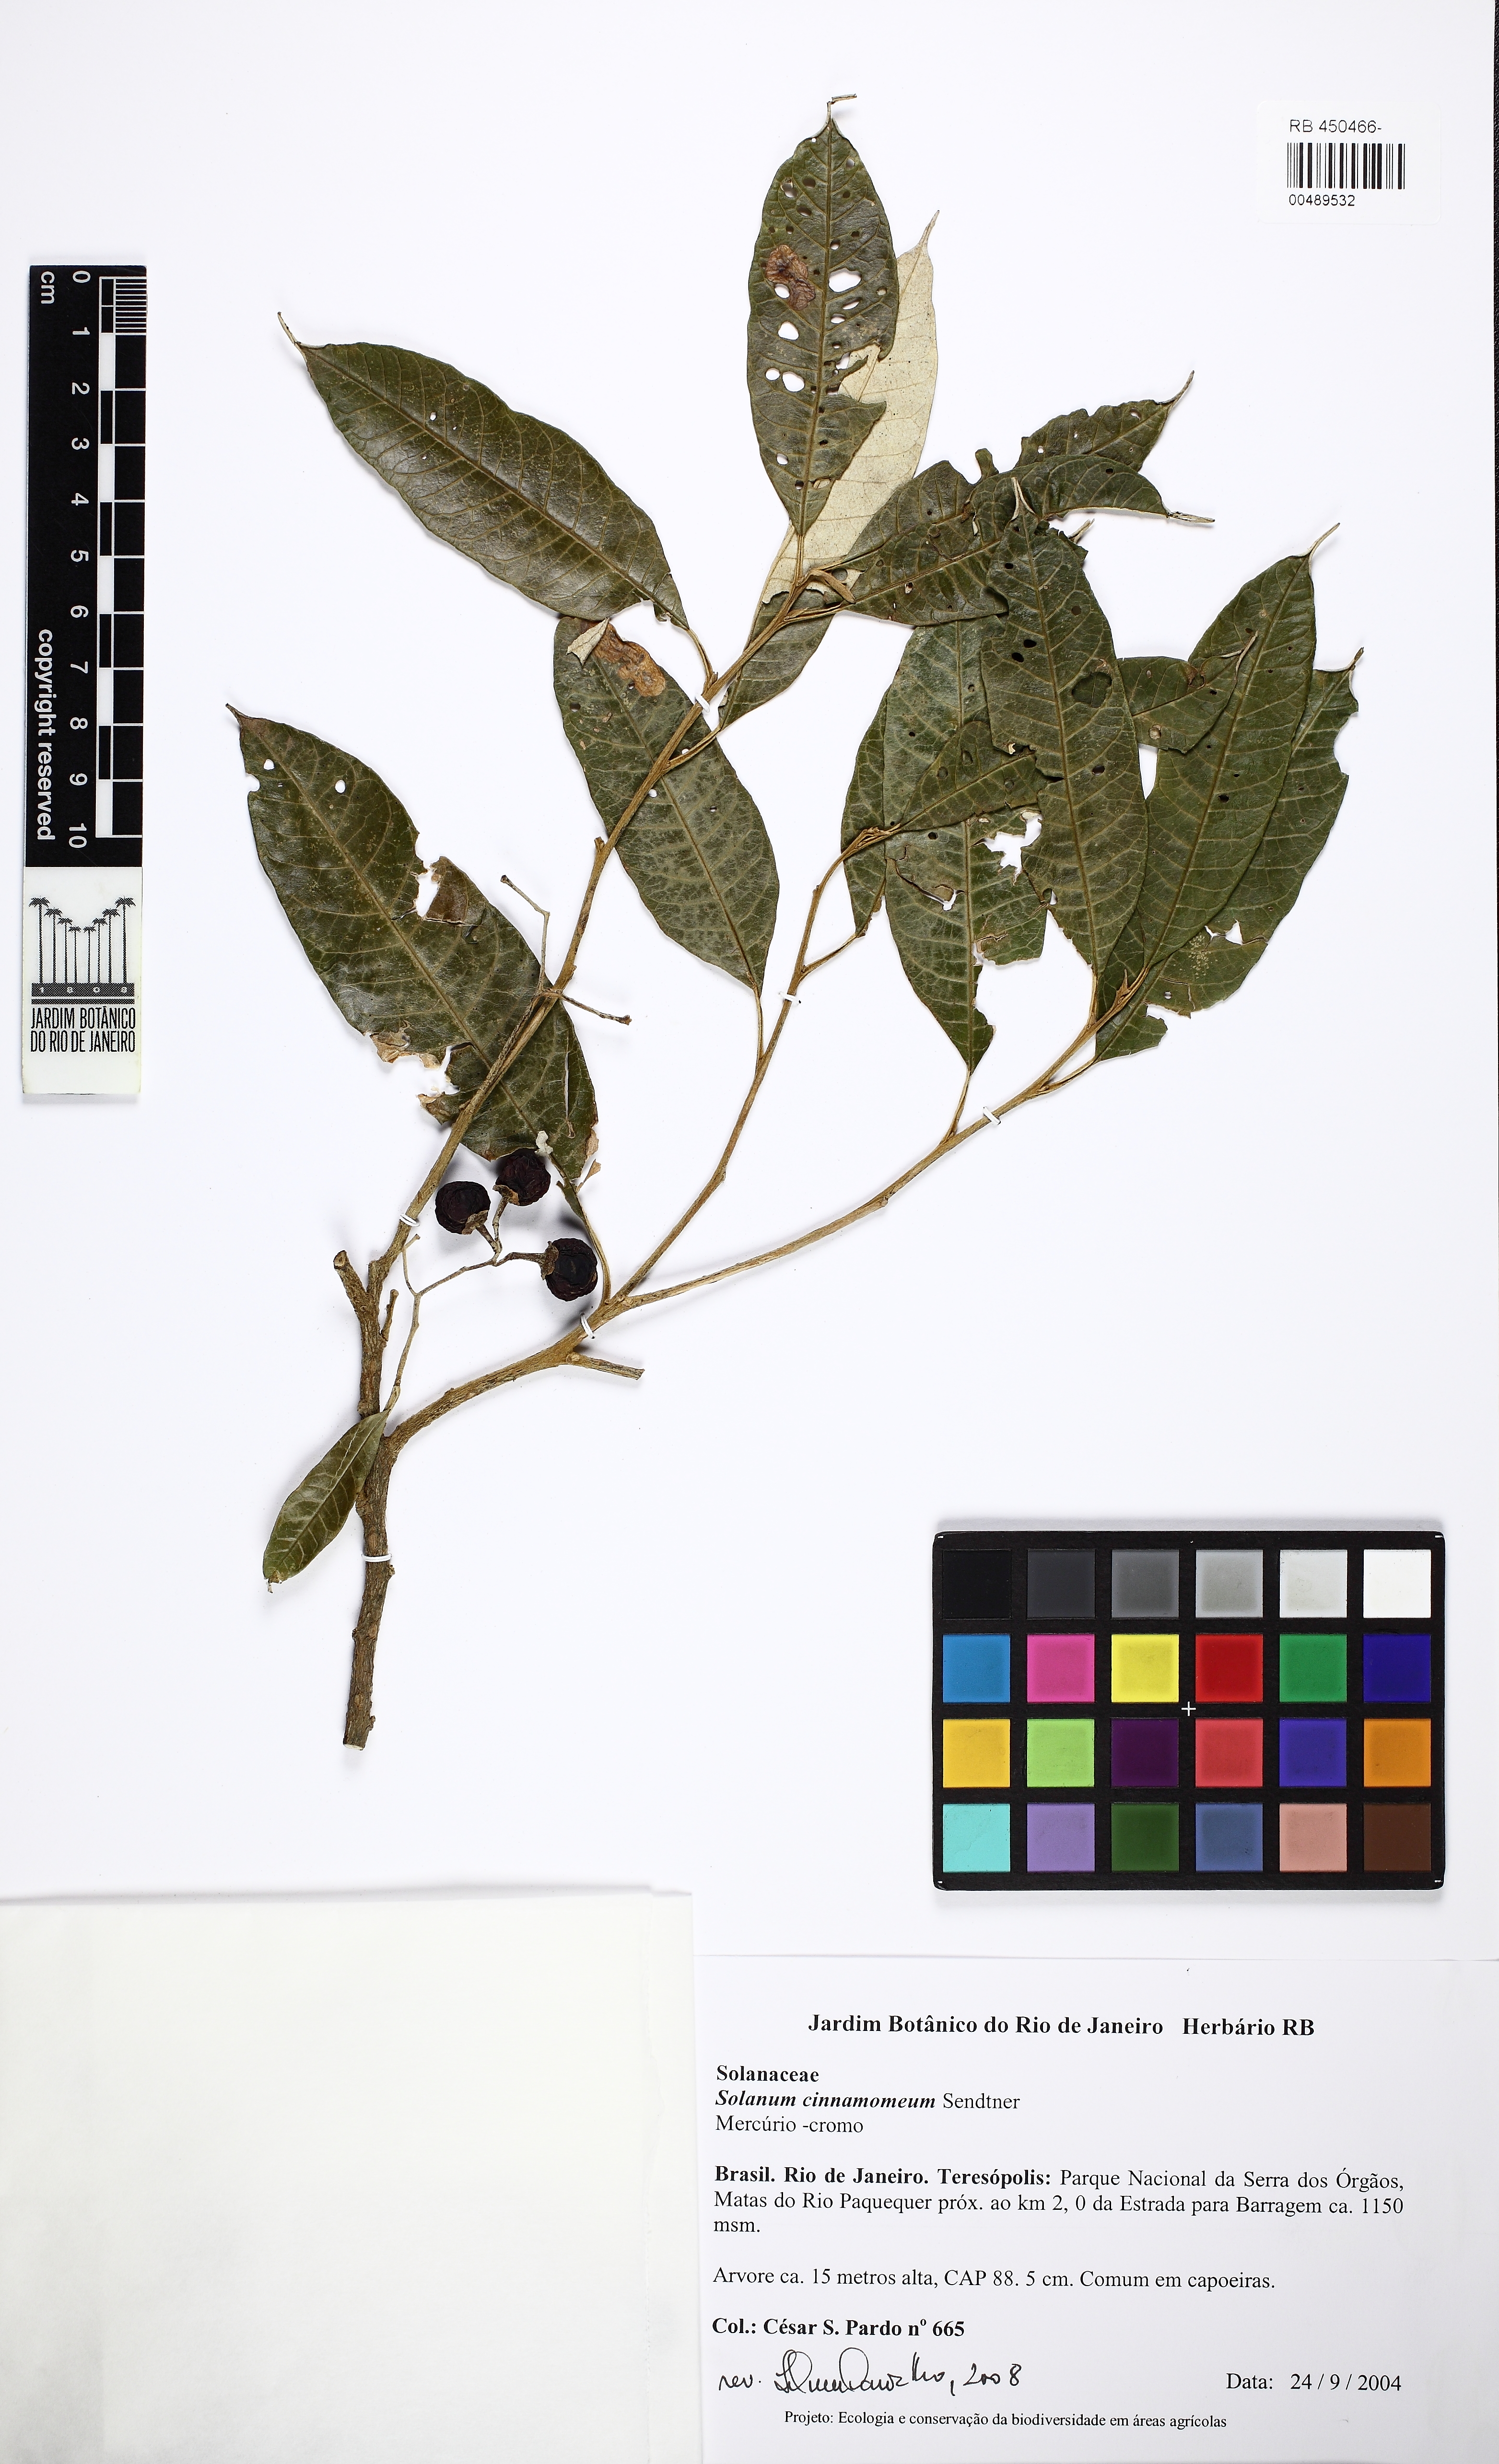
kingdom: Plantae
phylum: Tracheophyta
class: Magnoliopsida
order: Solanales
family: Solanaceae
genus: Solanum
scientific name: Solanum cinnamomeum
